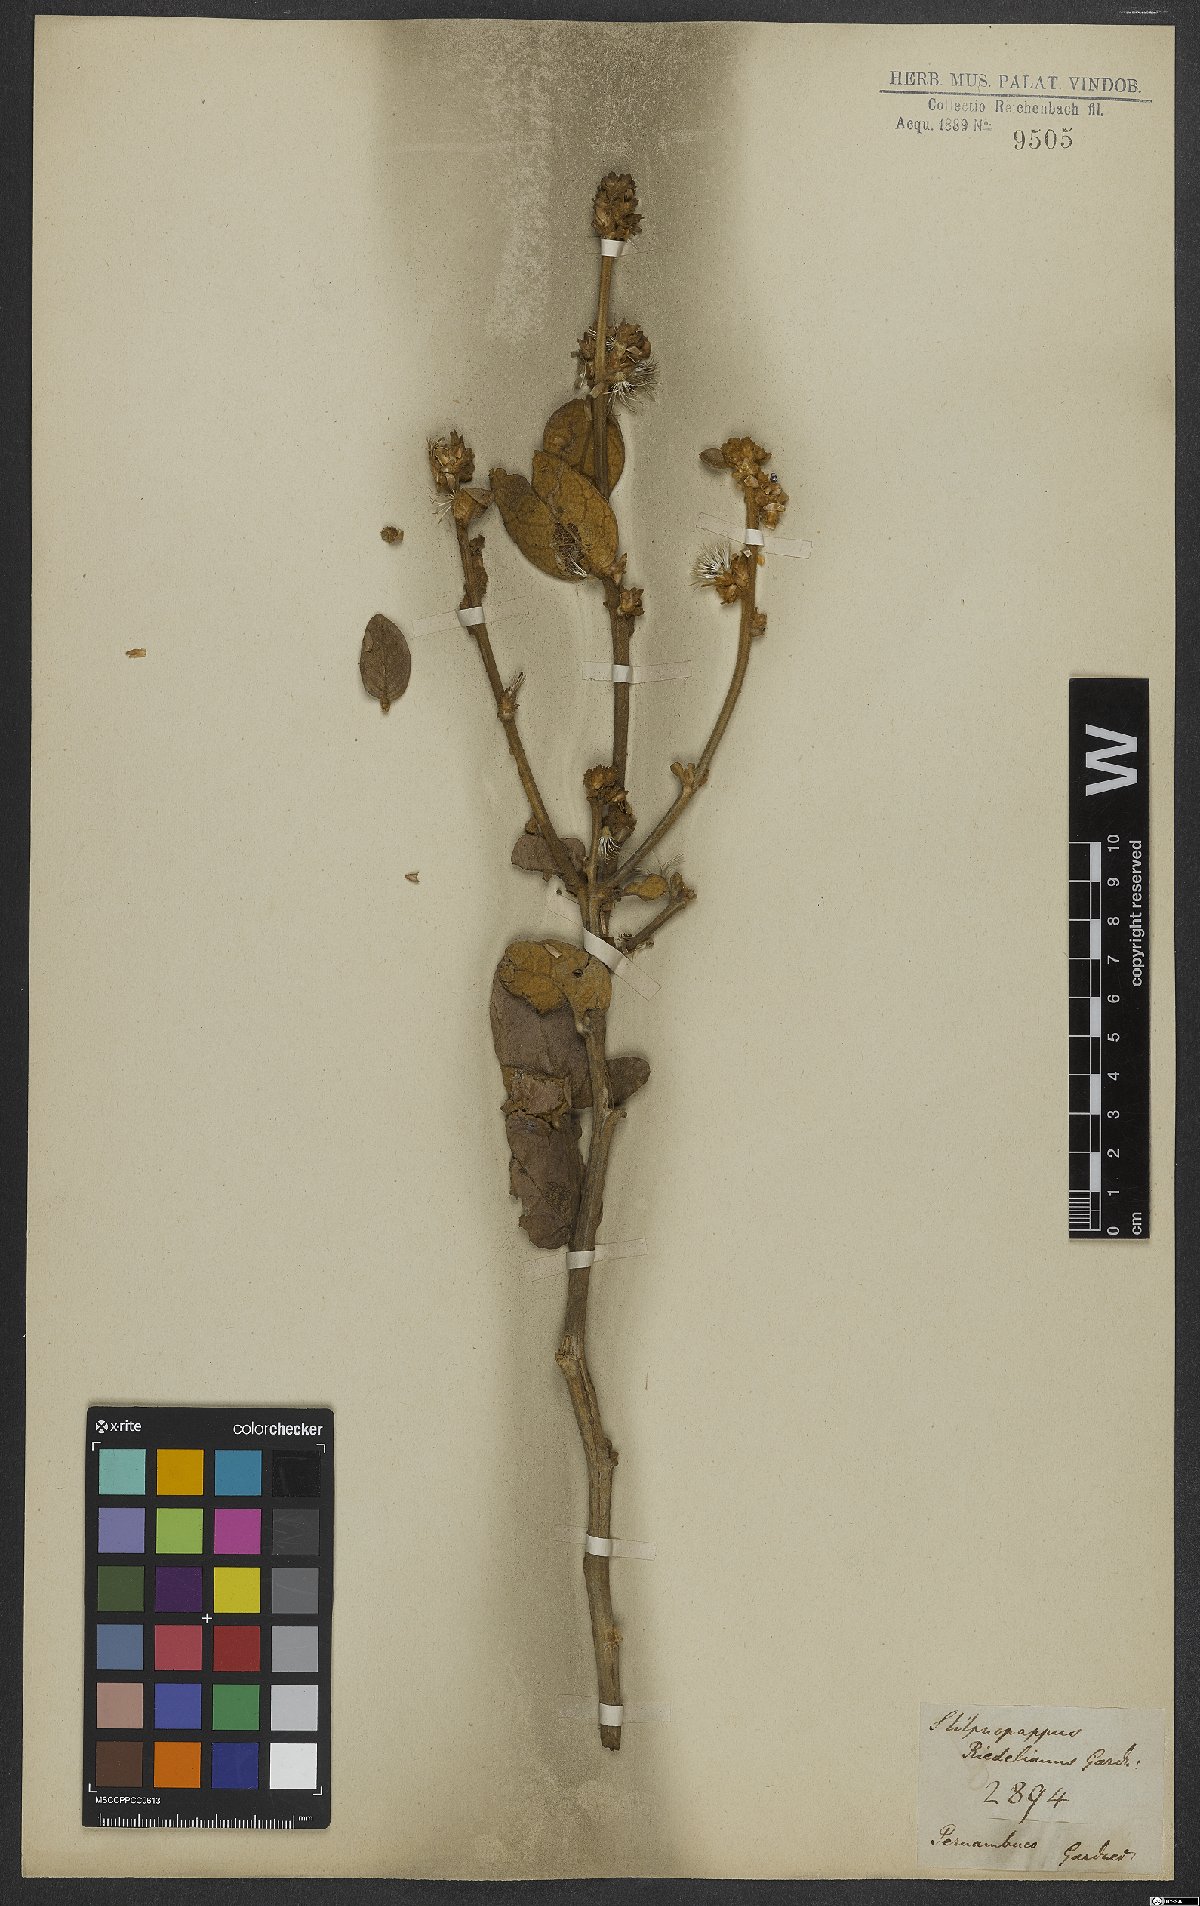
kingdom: Plantae
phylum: Tracheophyta
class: Magnoliopsida
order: Asterales
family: Asteraceae
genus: Stilpnopappus
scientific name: Stilpnopappus bicolor
